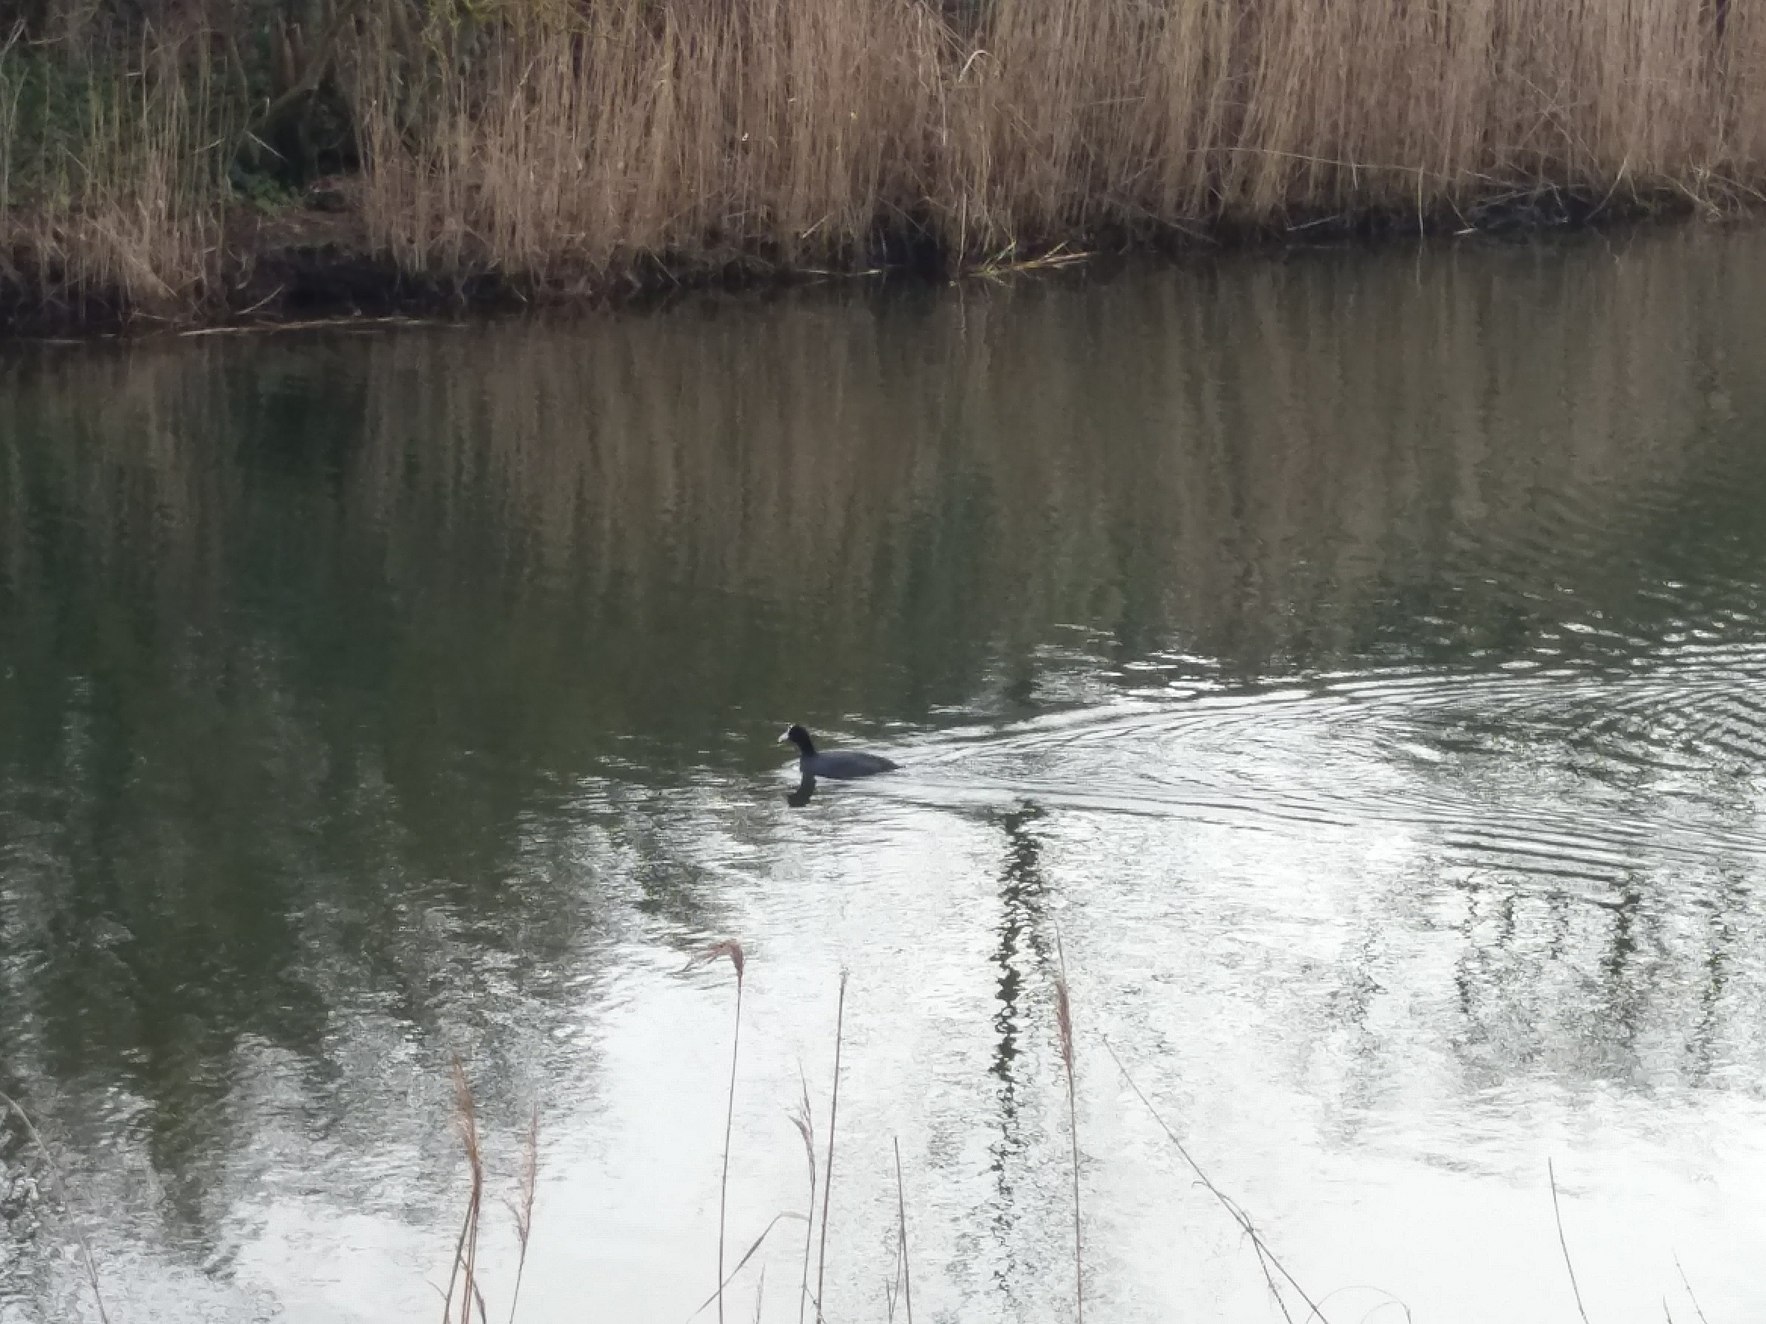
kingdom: Animalia
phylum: Chordata
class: Aves
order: Gruiformes
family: Rallidae
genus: Fulica
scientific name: Fulica atra
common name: Blishøne
